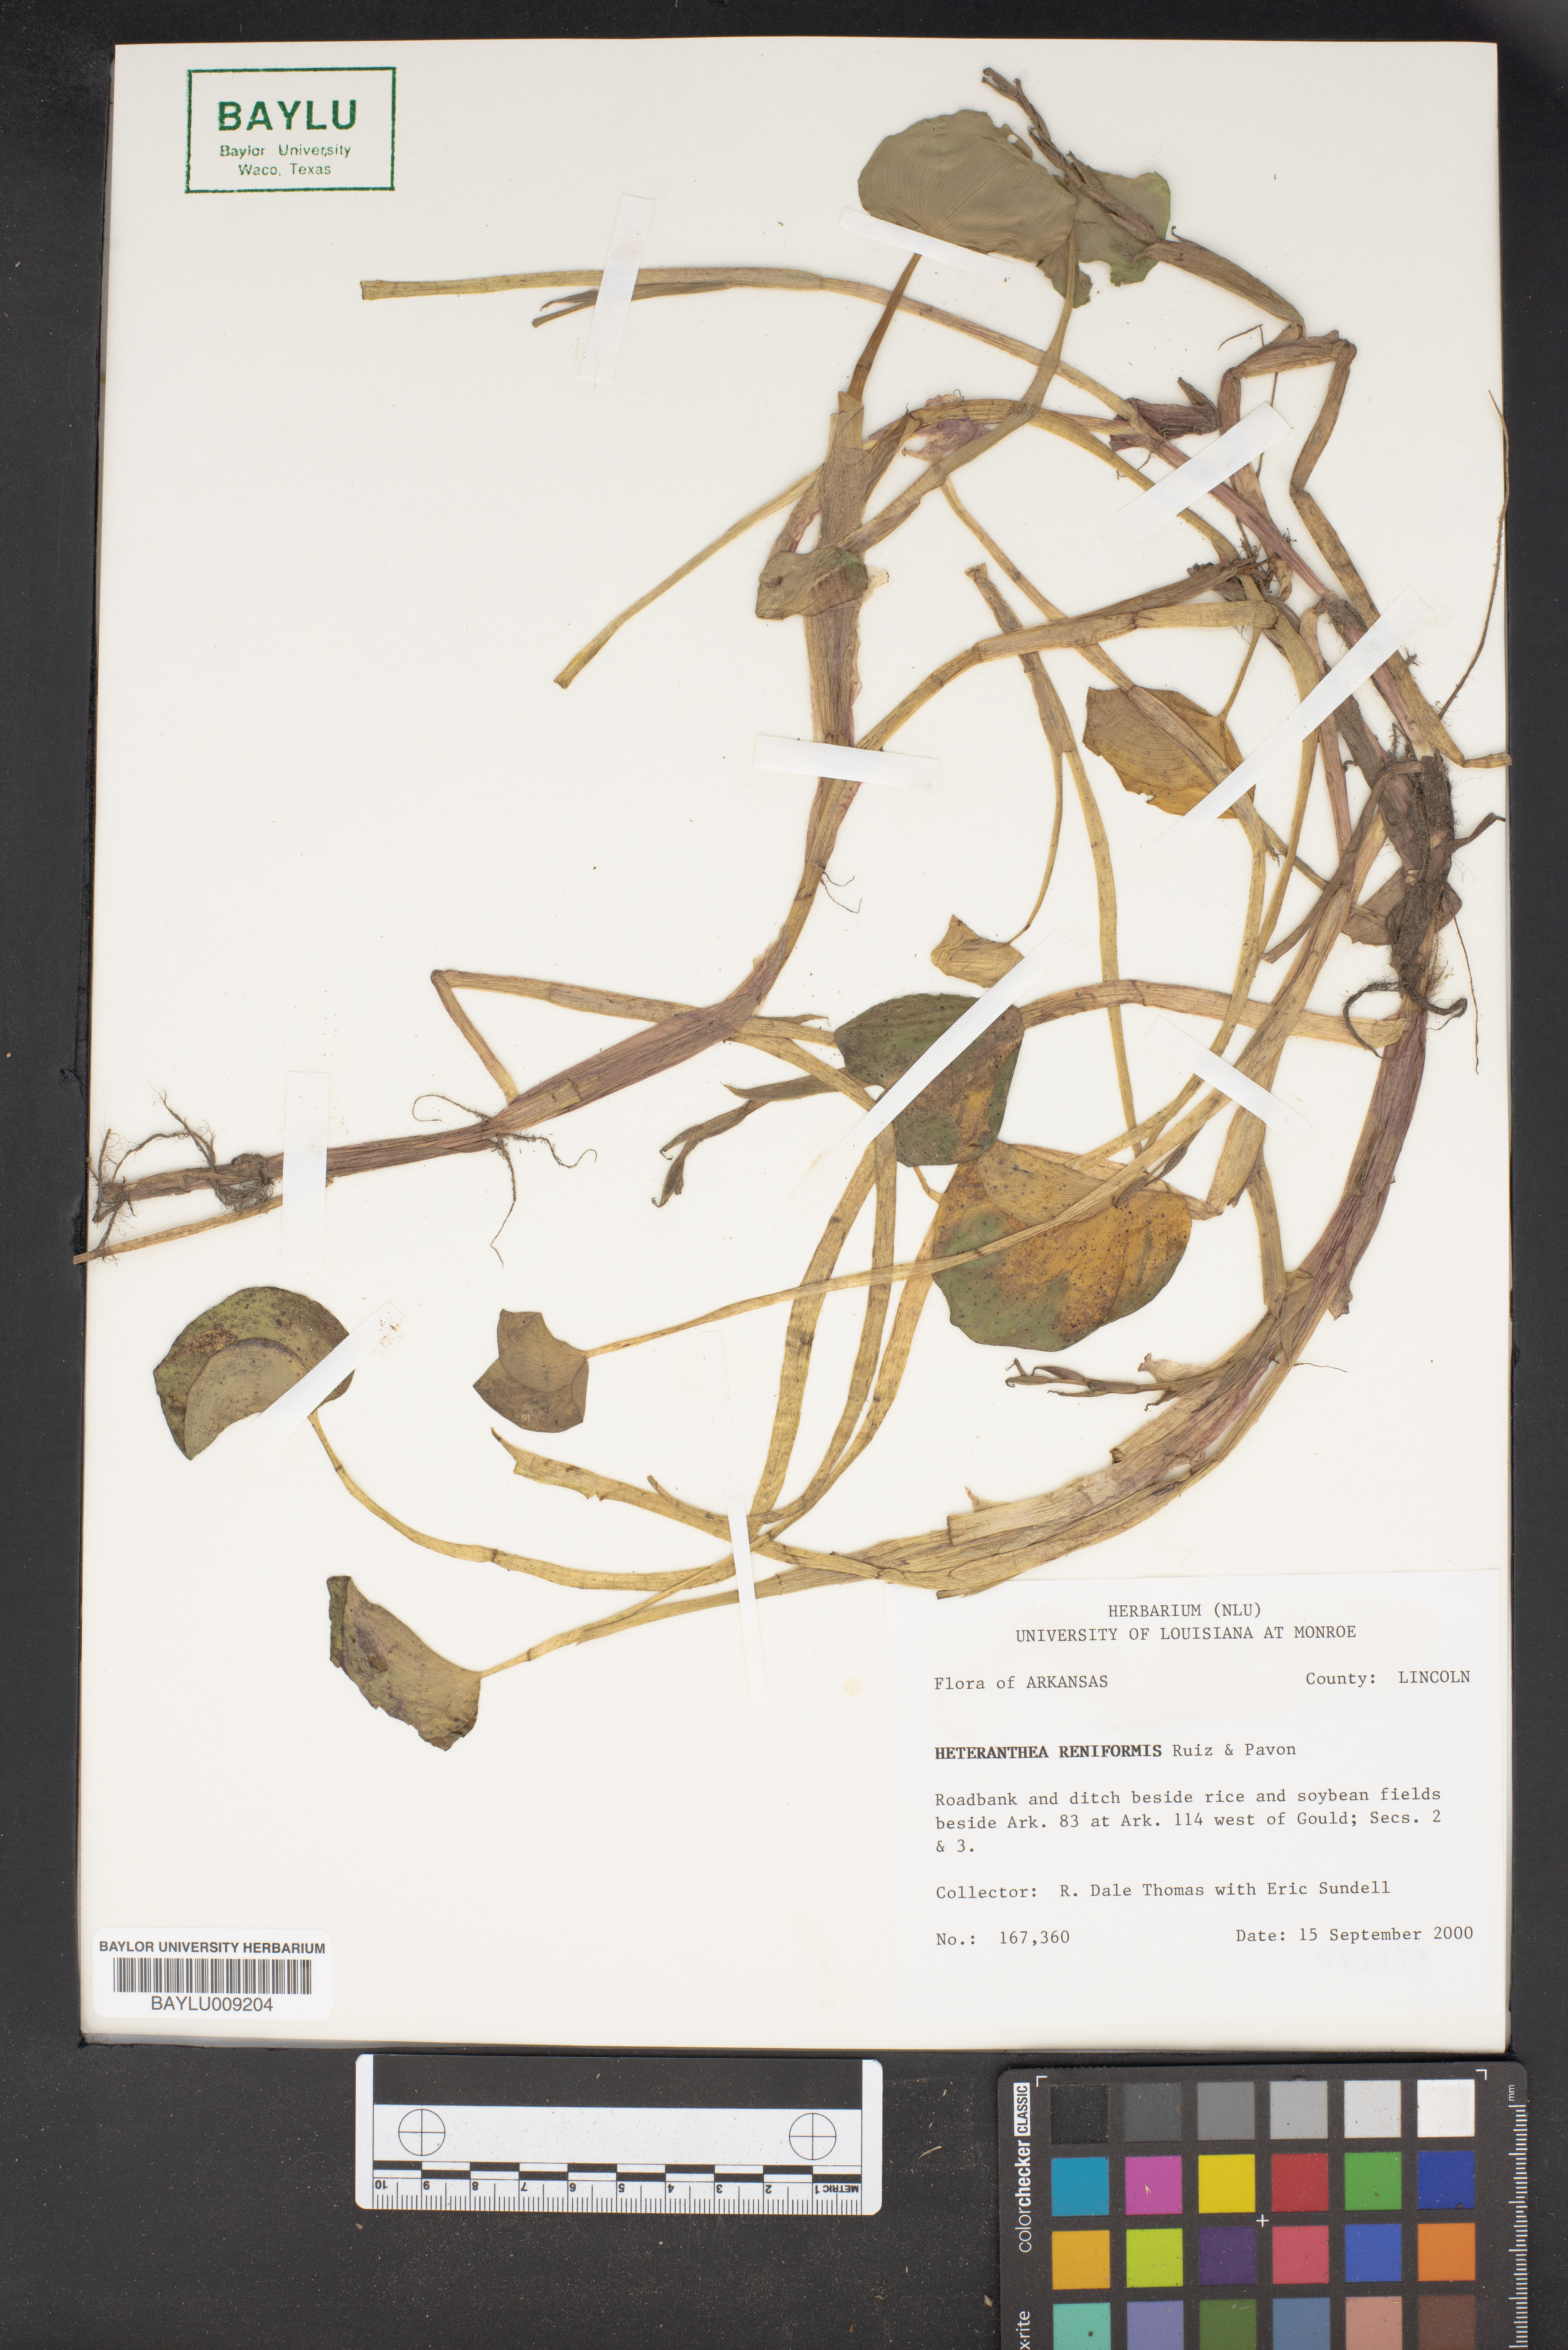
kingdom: Plantae
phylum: Tracheophyta
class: Liliopsida
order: Commelinales
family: Pontederiaceae
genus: Heteranthera
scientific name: Heteranthera reniformis
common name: Kidneyleaf mudplantain
